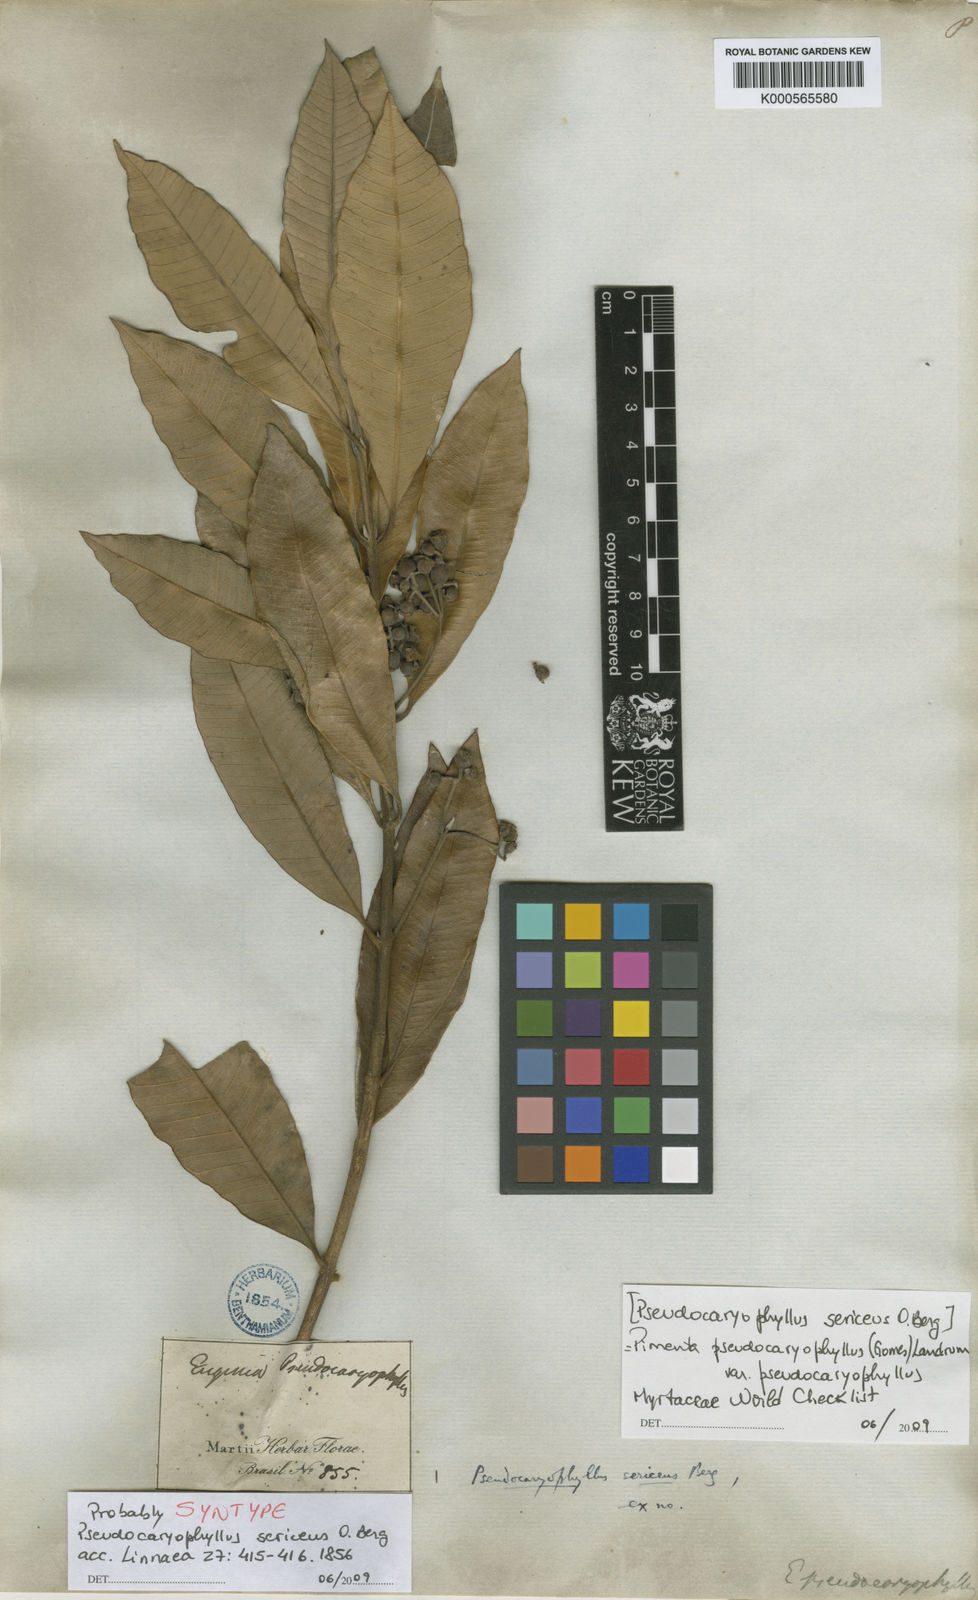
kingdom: Plantae
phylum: Tracheophyta
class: Magnoliopsida
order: Myrtales
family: Myrtaceae
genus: Pimenta
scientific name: Pimenta pseudocaryophyllus
